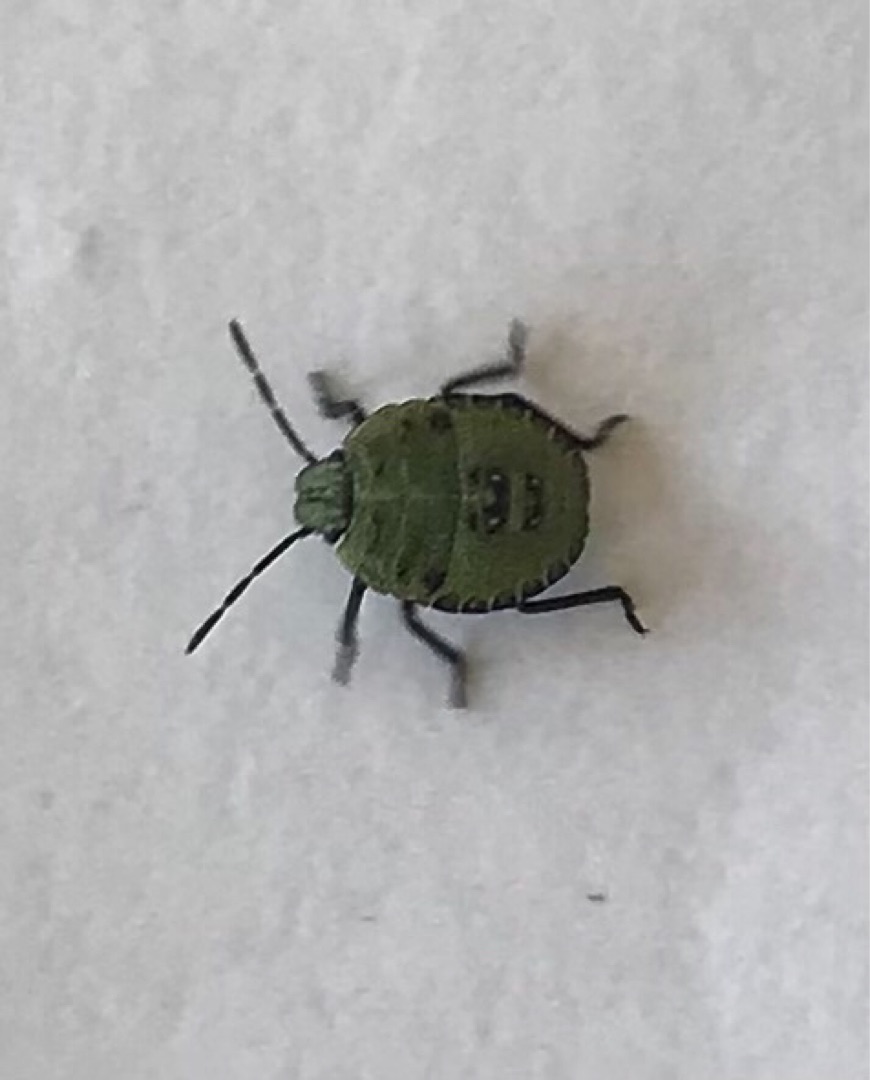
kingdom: Animalia
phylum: Arthropoda
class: Insecta
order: Hemiptera
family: Pentatomidae
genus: Palomena
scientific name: Palomena prasina
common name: Grøn bredtæge
